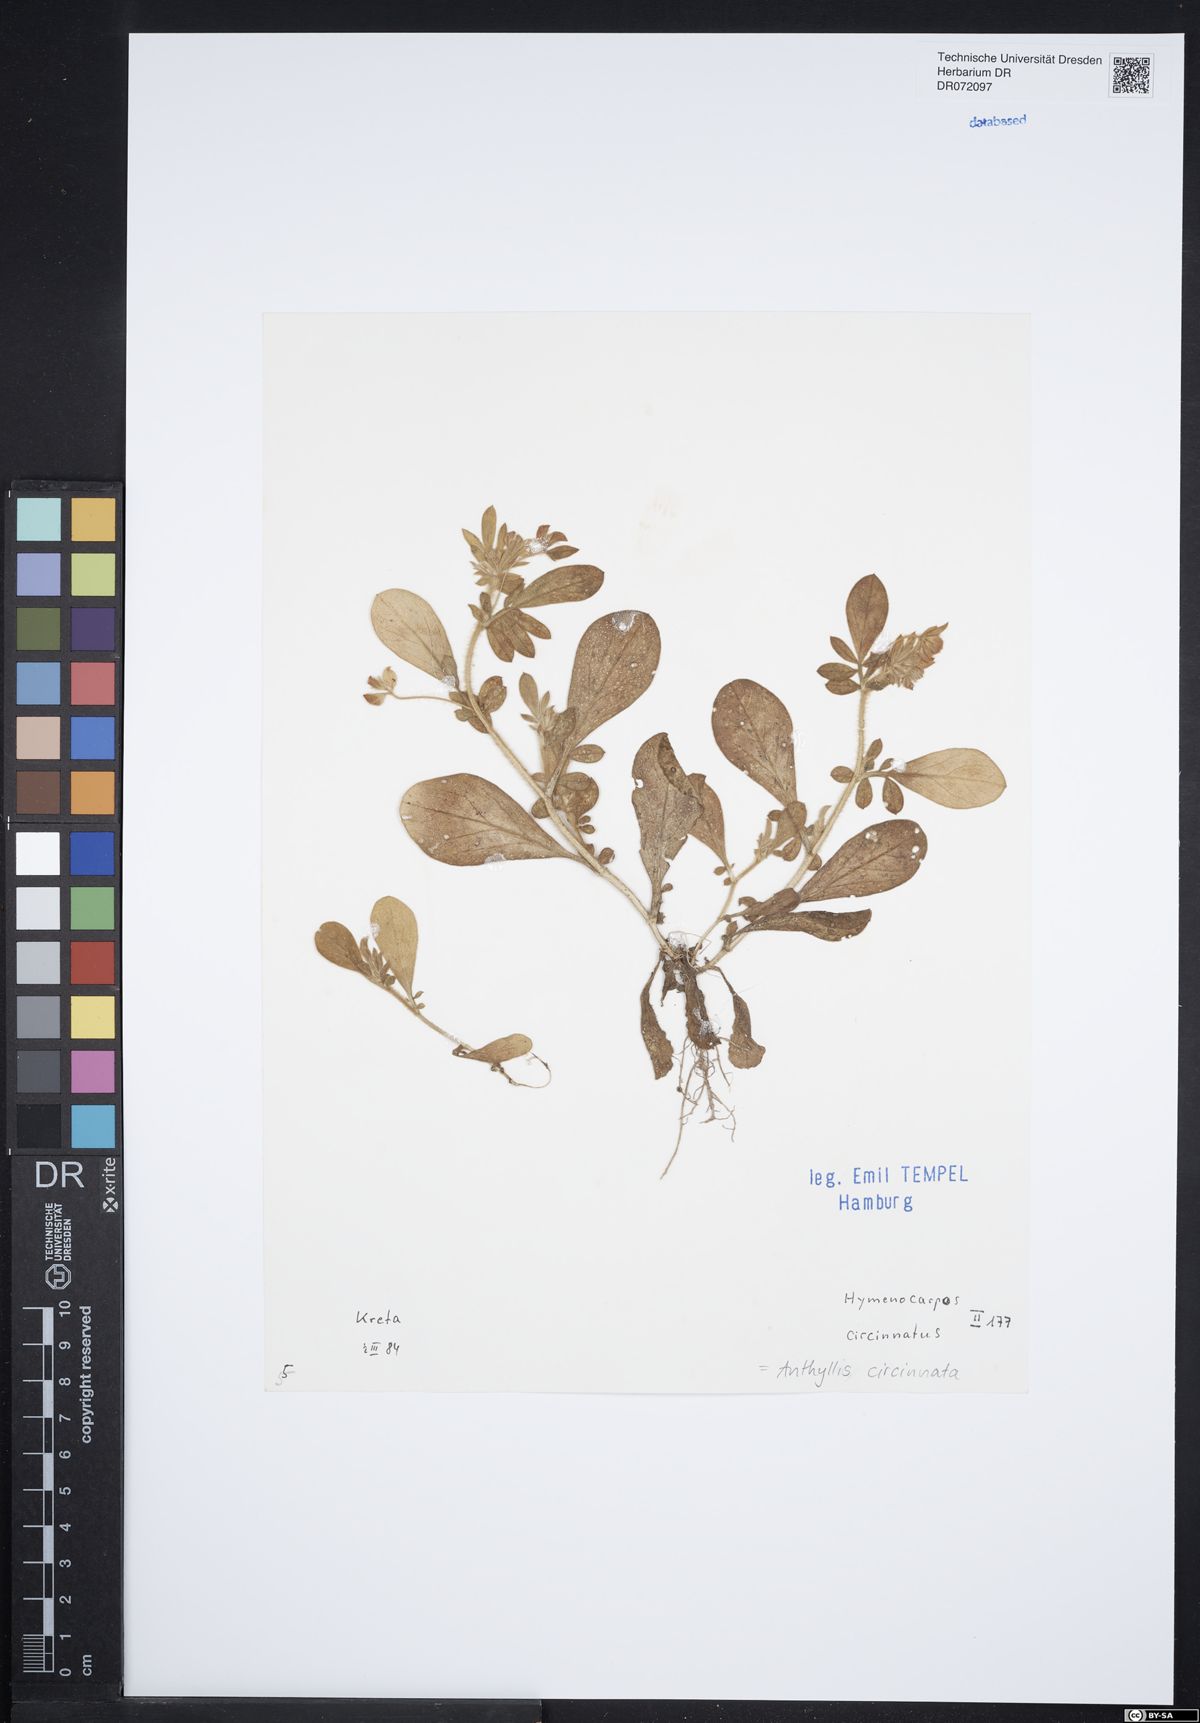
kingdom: Plantae
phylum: Tracheophyta
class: Magnoliopsida
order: Fabales
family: Fabaceae
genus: Anthyllis
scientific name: Anthyllis circinnata
